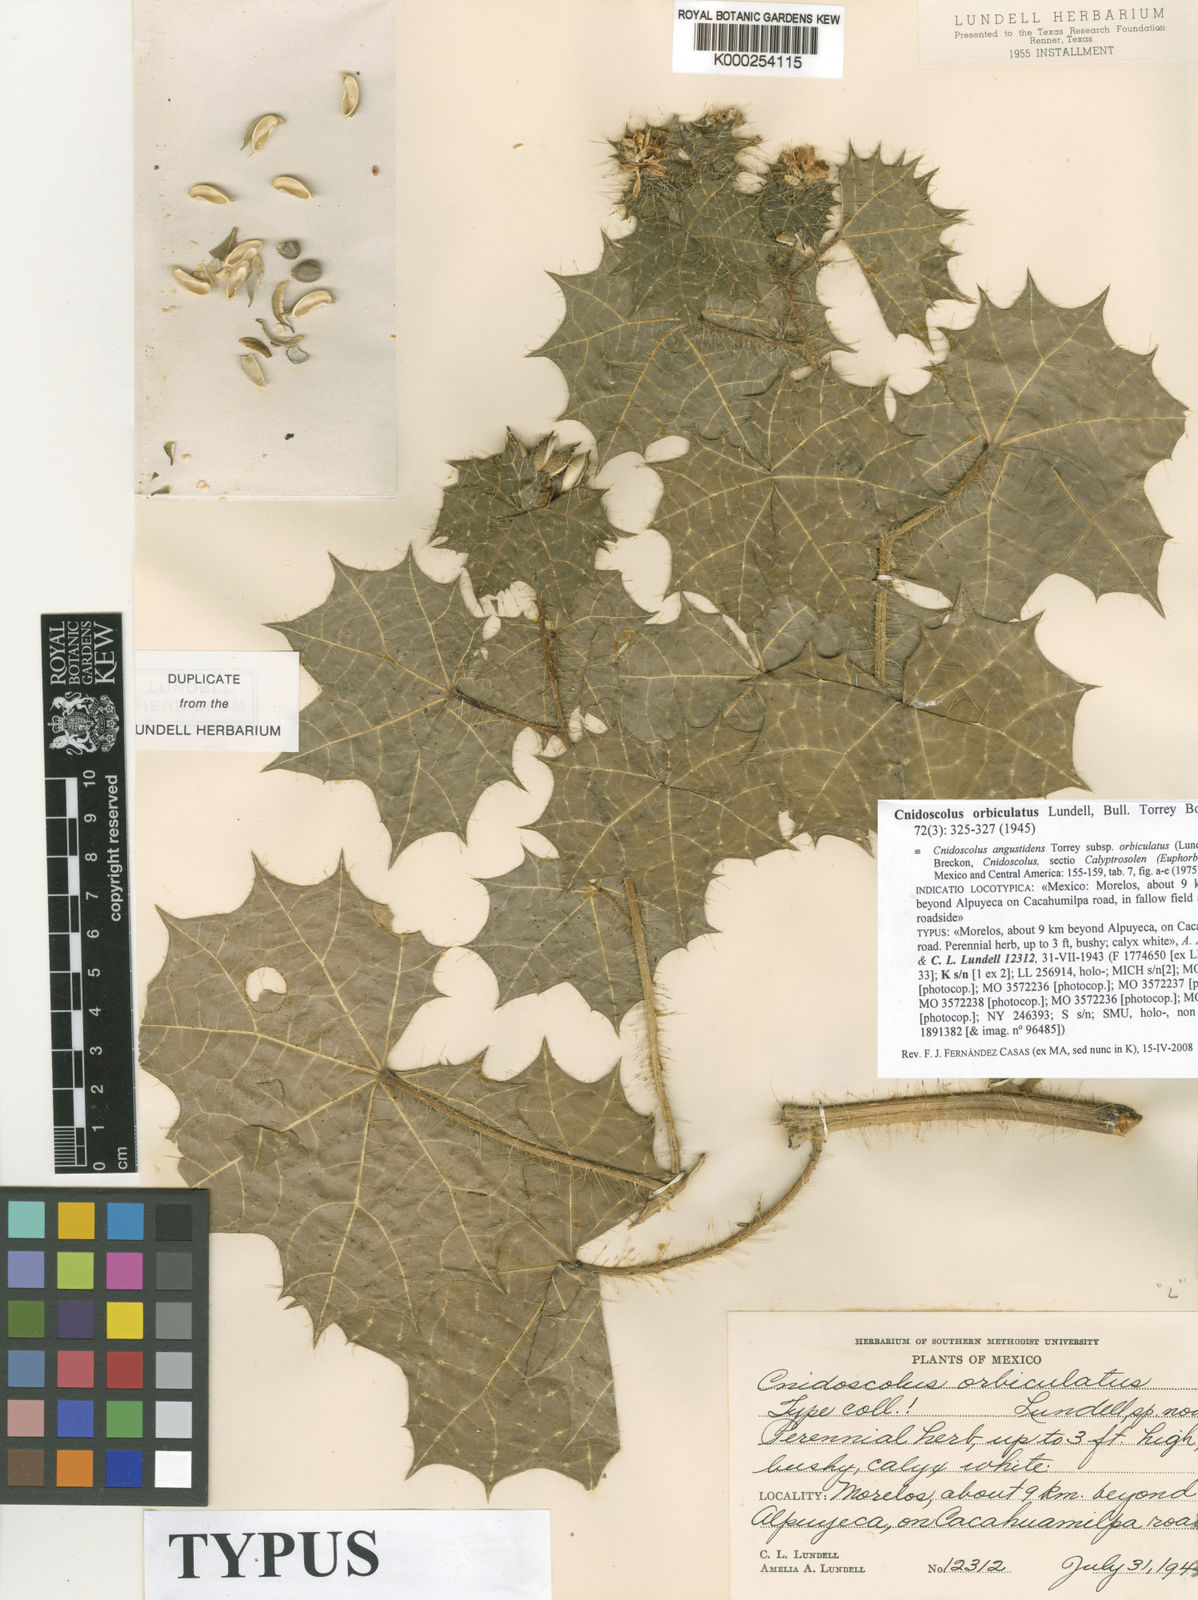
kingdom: Plantae
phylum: Tracheophyta
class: Magnoliopsida
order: Malpighiales
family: Euphorbiaceae
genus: Cnidoscolus
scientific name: Cnidoscolus angustidens
